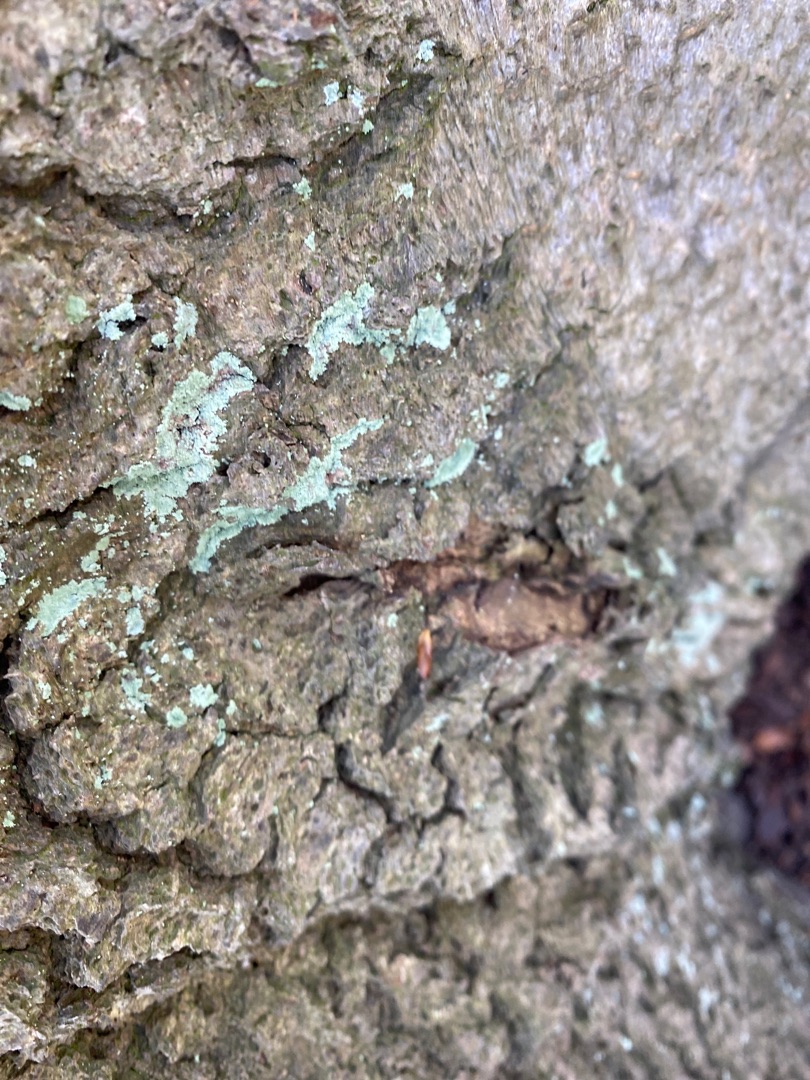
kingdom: Fungi
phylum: Ascomycota
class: Lecanoromycetes
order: Lecanorales
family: Stereocaulaceae
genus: Lepraria
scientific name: Lepraria
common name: Støvlav
